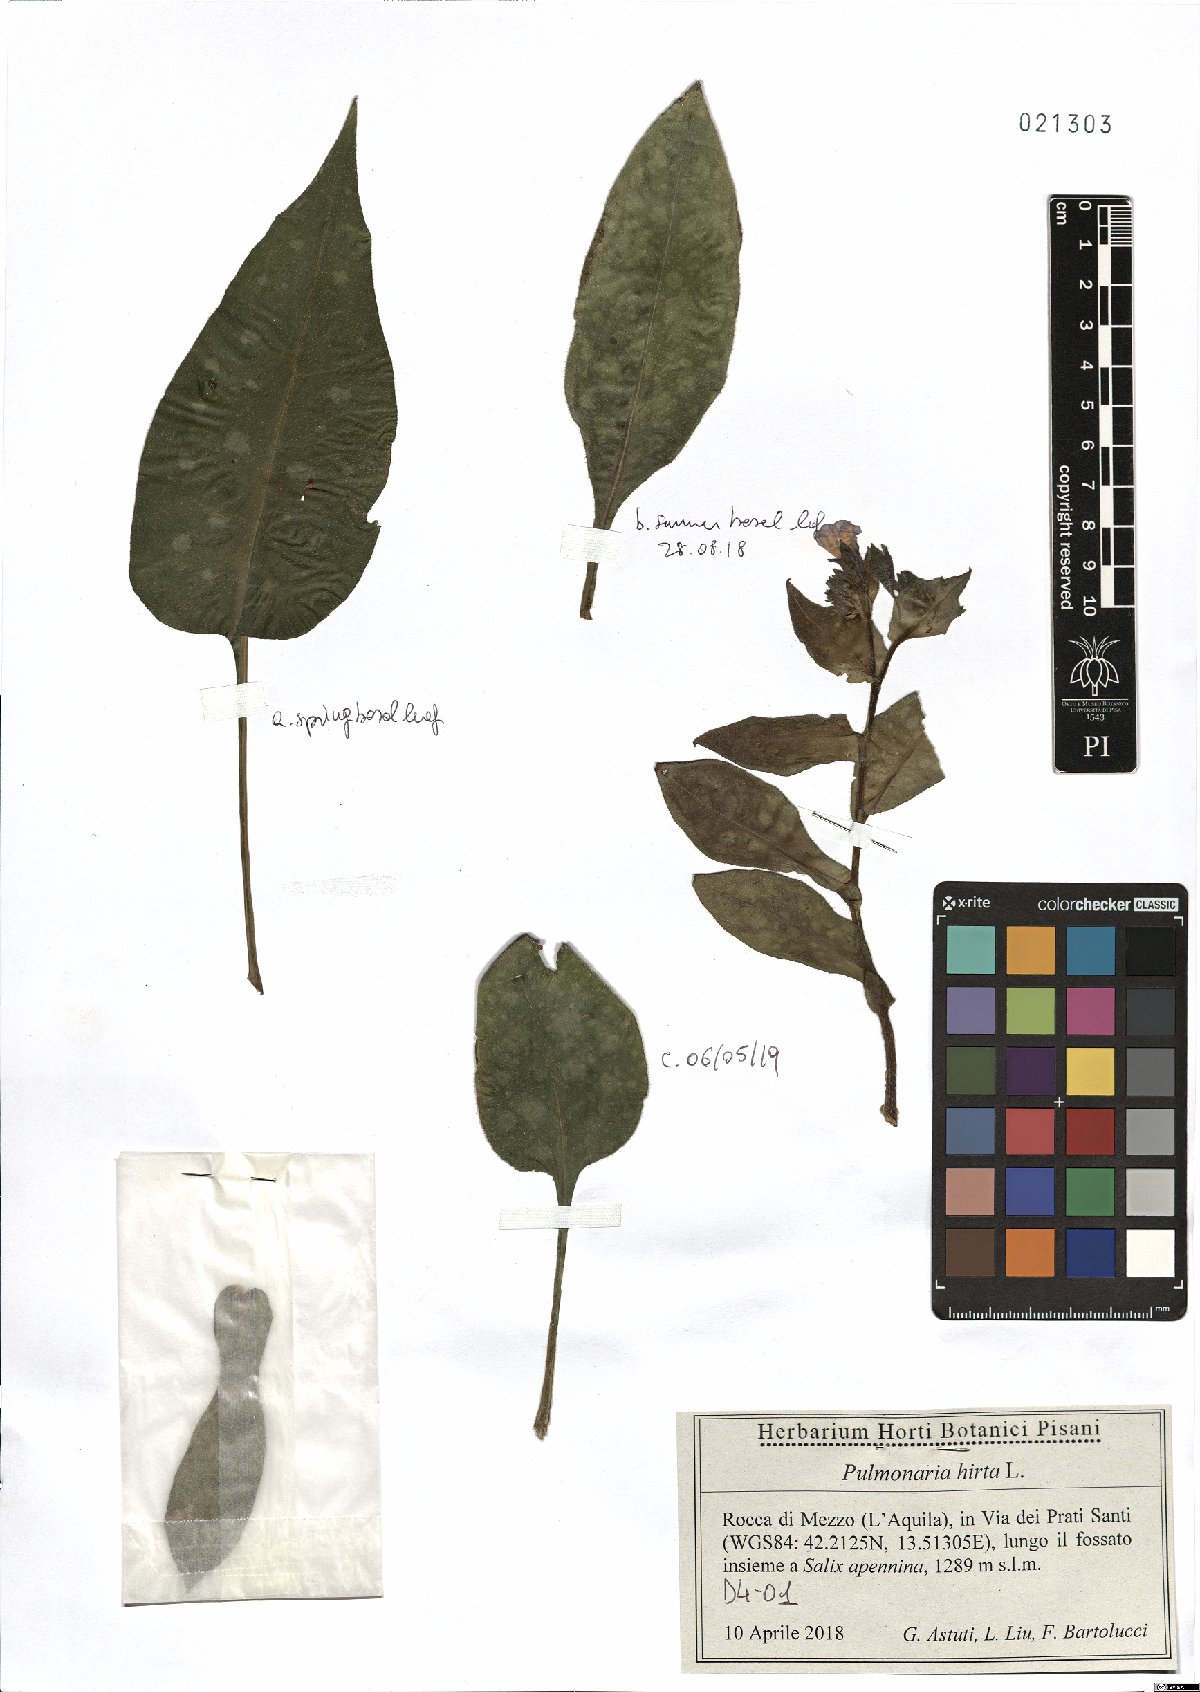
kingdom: Plantae
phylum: Tracheophyta
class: Magnoliopsida
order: Boraginales
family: Boraginaceae
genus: Pulmonaria
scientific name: Pulmonaria hirta
